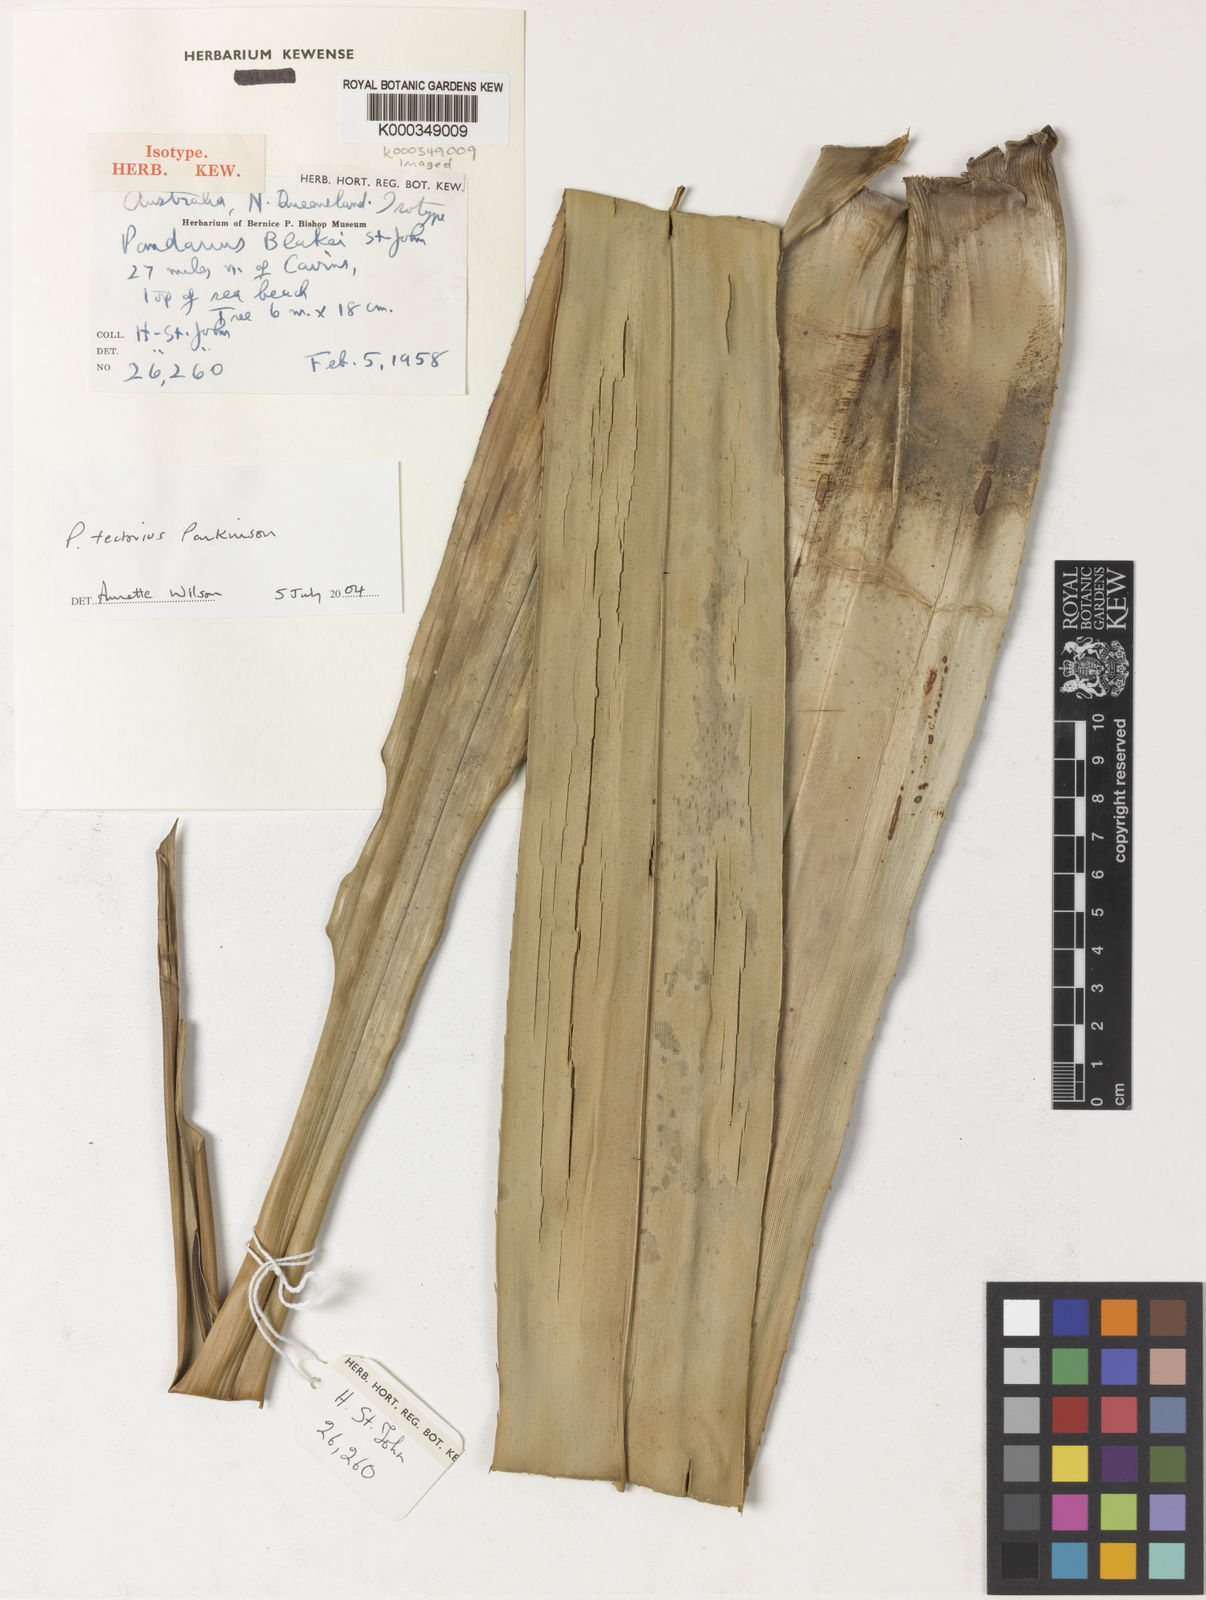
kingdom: Plantae
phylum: Tracheophyta
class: Liliopsida
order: Pandanales
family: Pandanaceae
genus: Pandanus
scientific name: Pandanus
